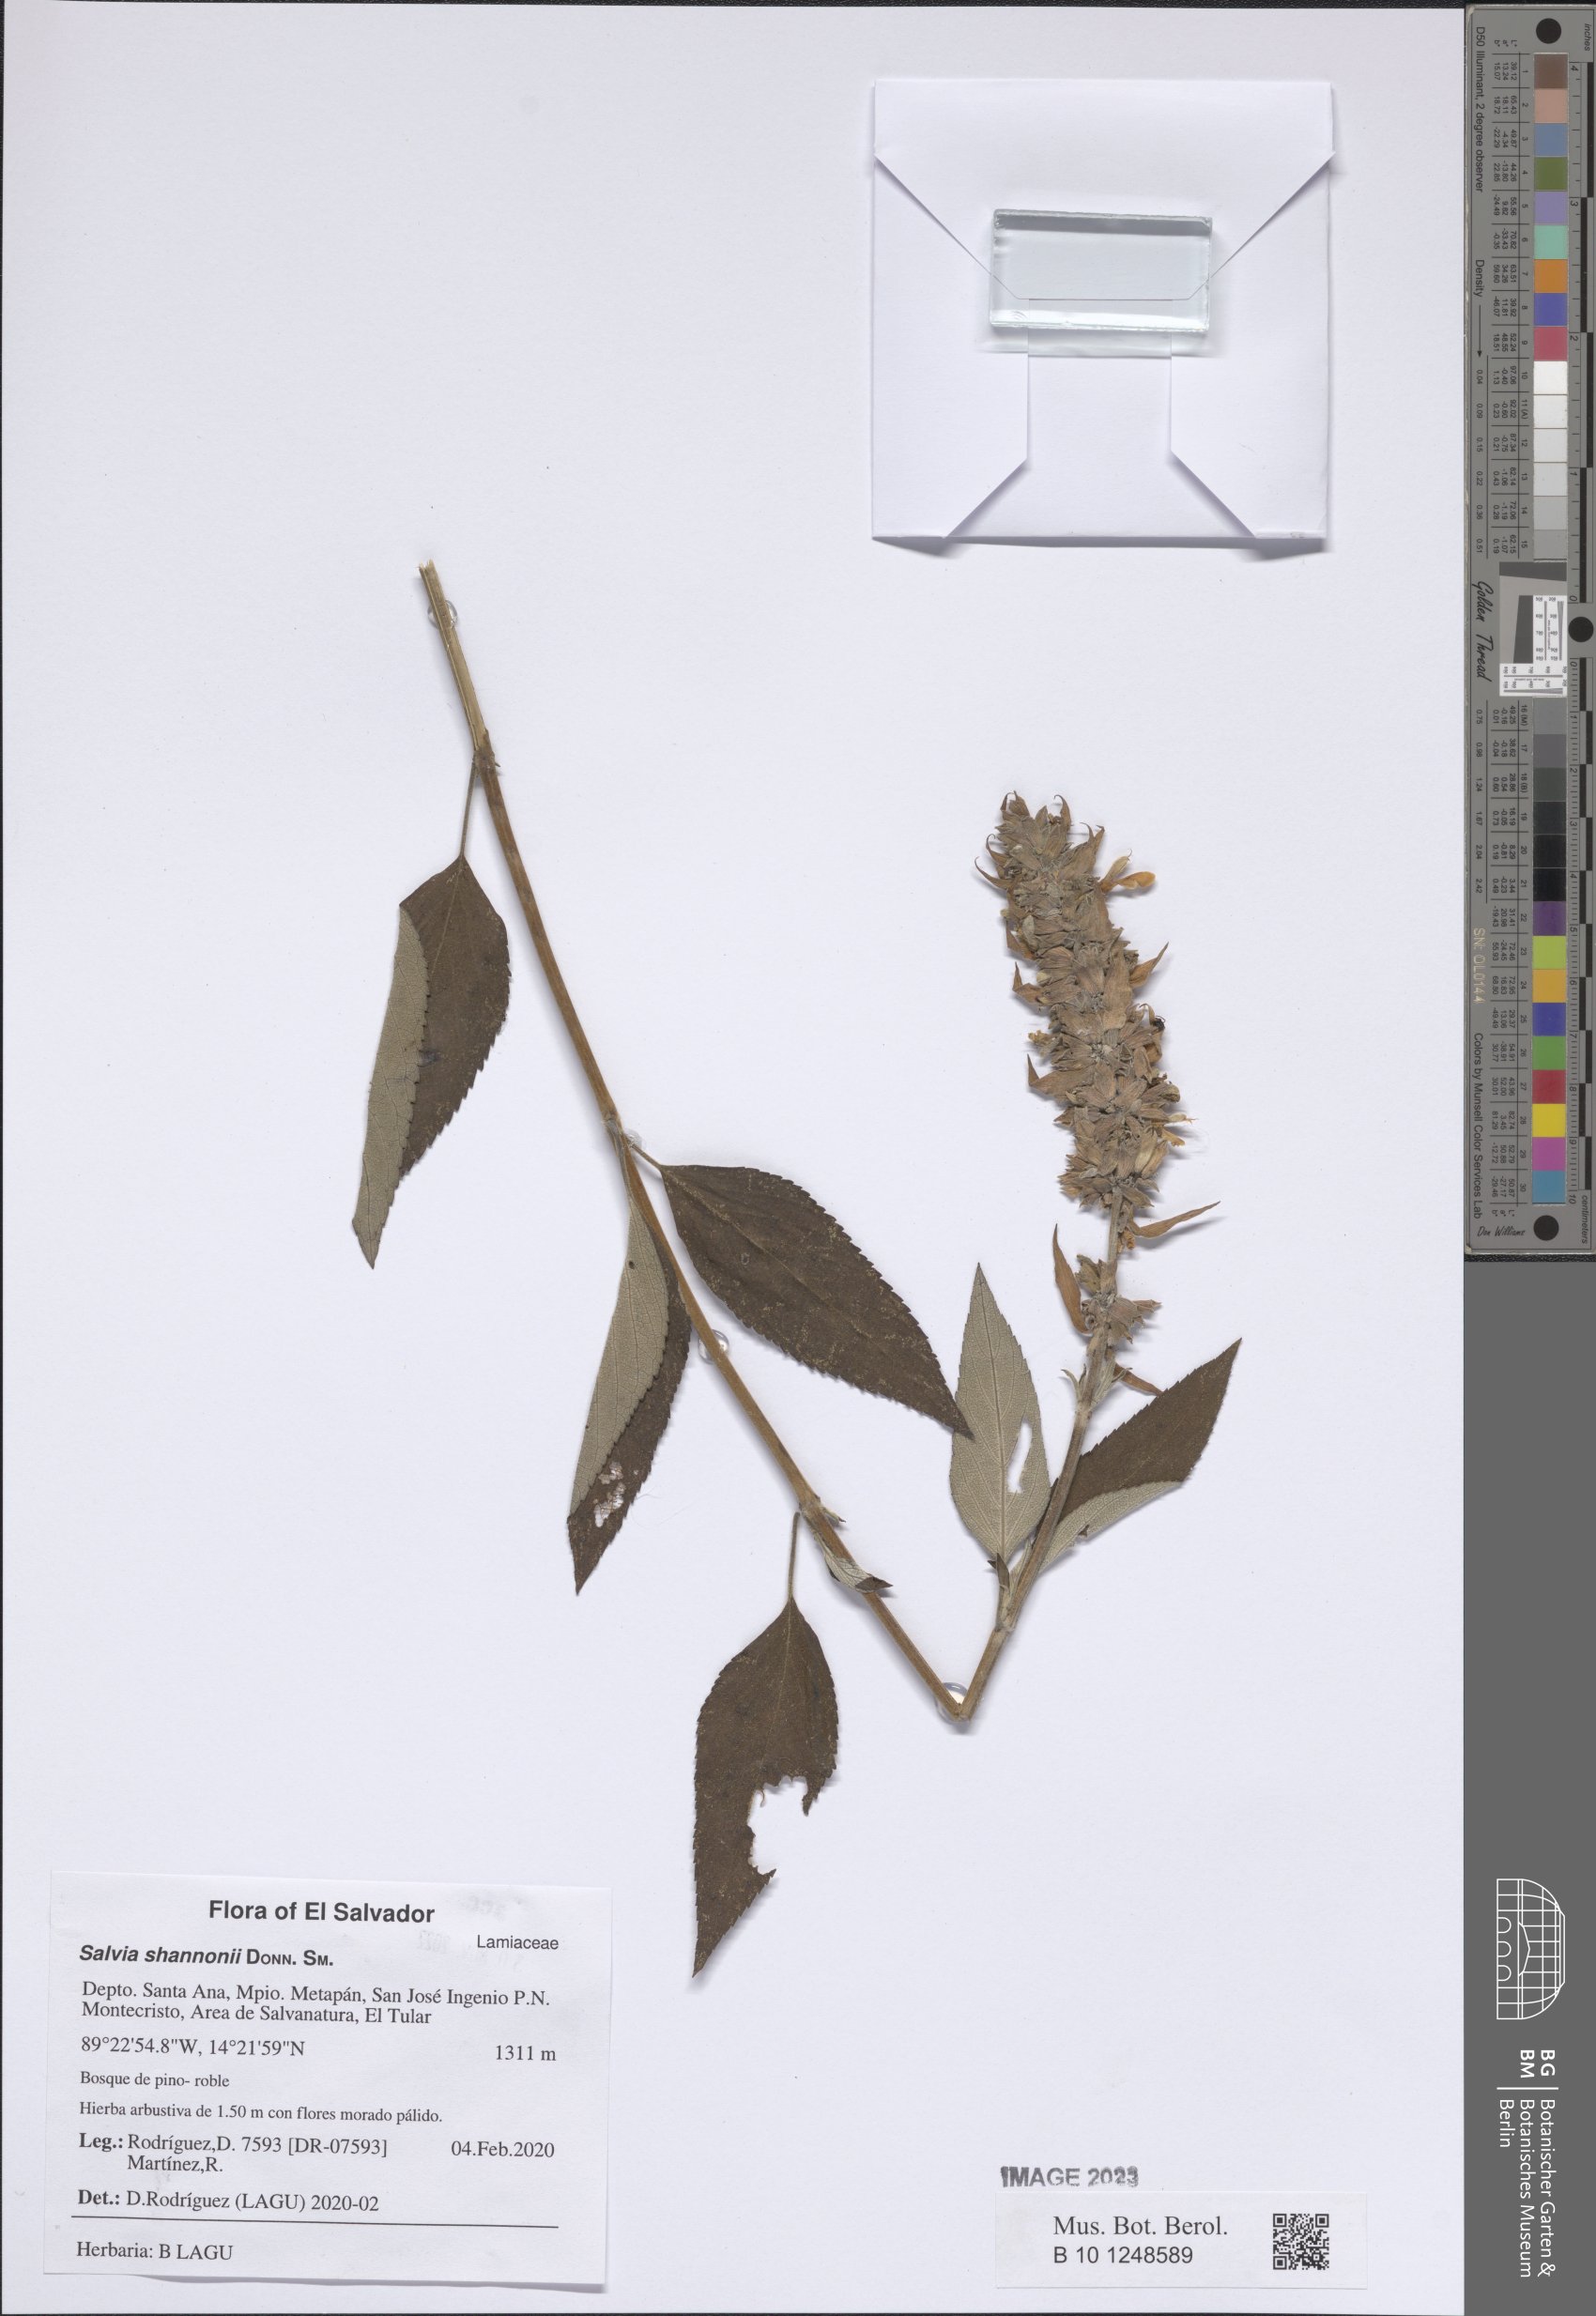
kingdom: Plantae
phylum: Tracheophyta
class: Magnoliopsida
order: Lamiales
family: Lamiaceae
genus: Salvia
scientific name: Salvia shannonii
